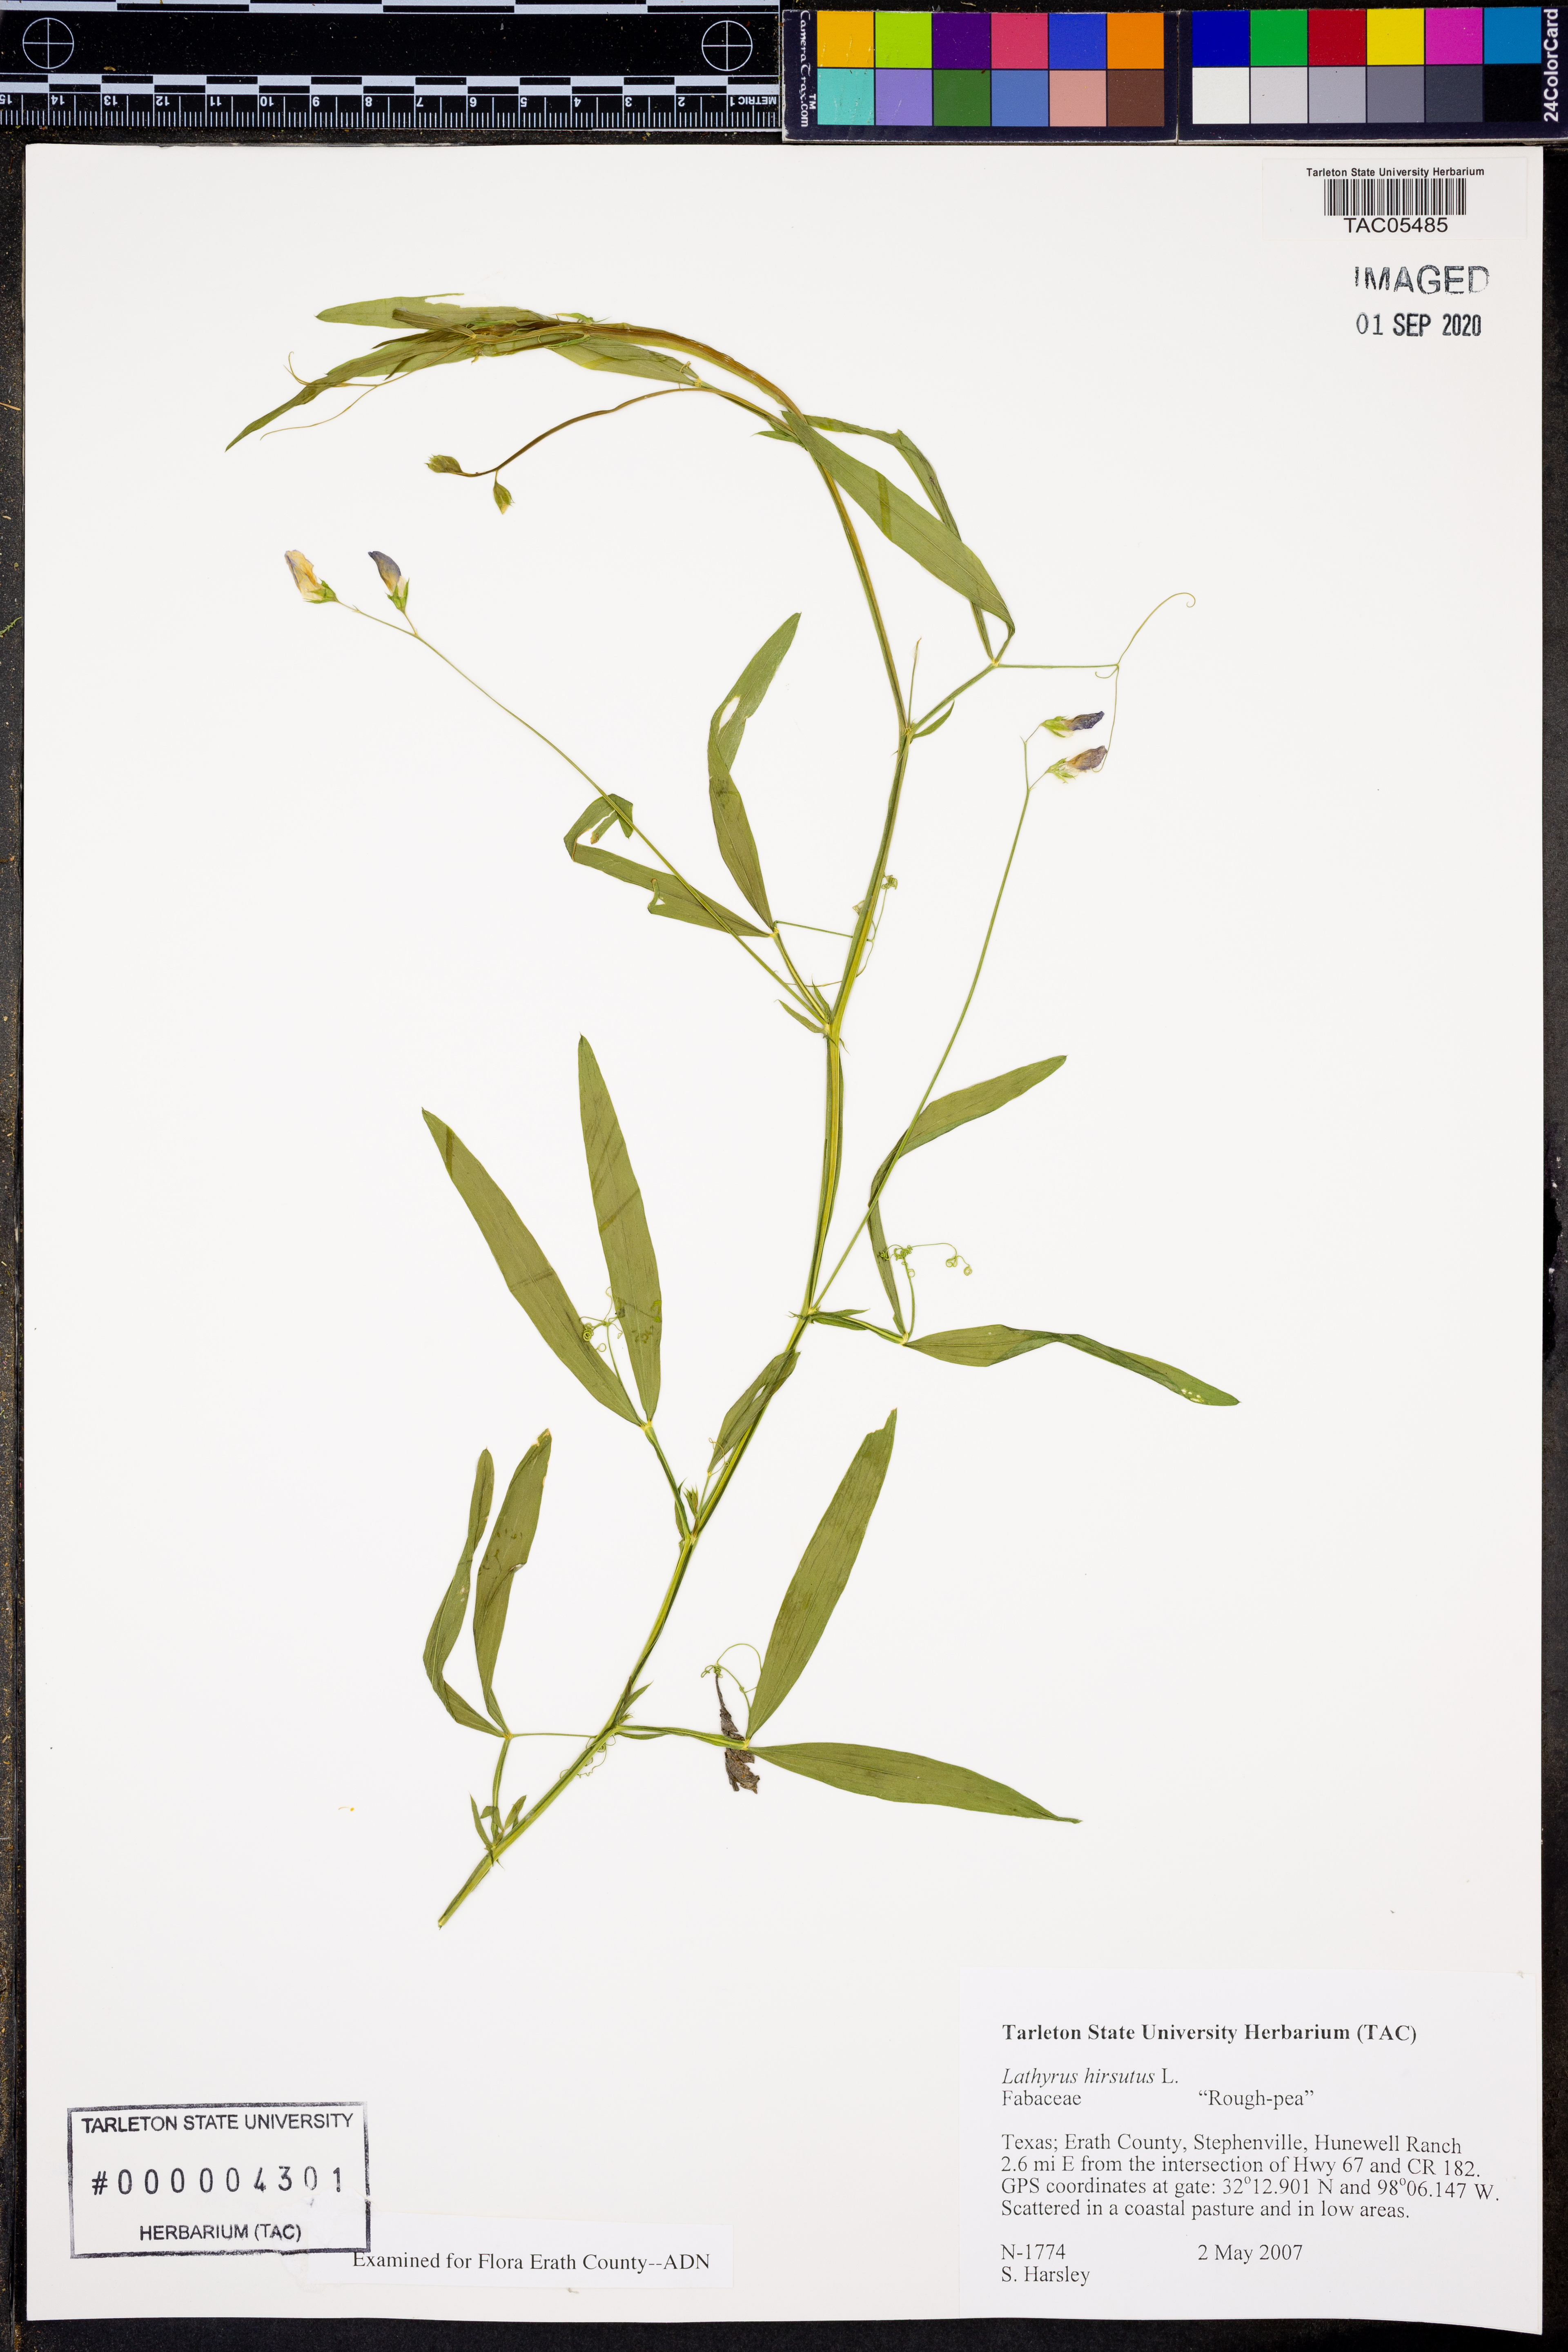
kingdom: Plantae
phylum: Tracheophyta
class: Magnoliopsida
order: Fabales
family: Fabaceae
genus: Lathyrus
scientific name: Lathyrus hirsutus
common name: Hairy vetchling
